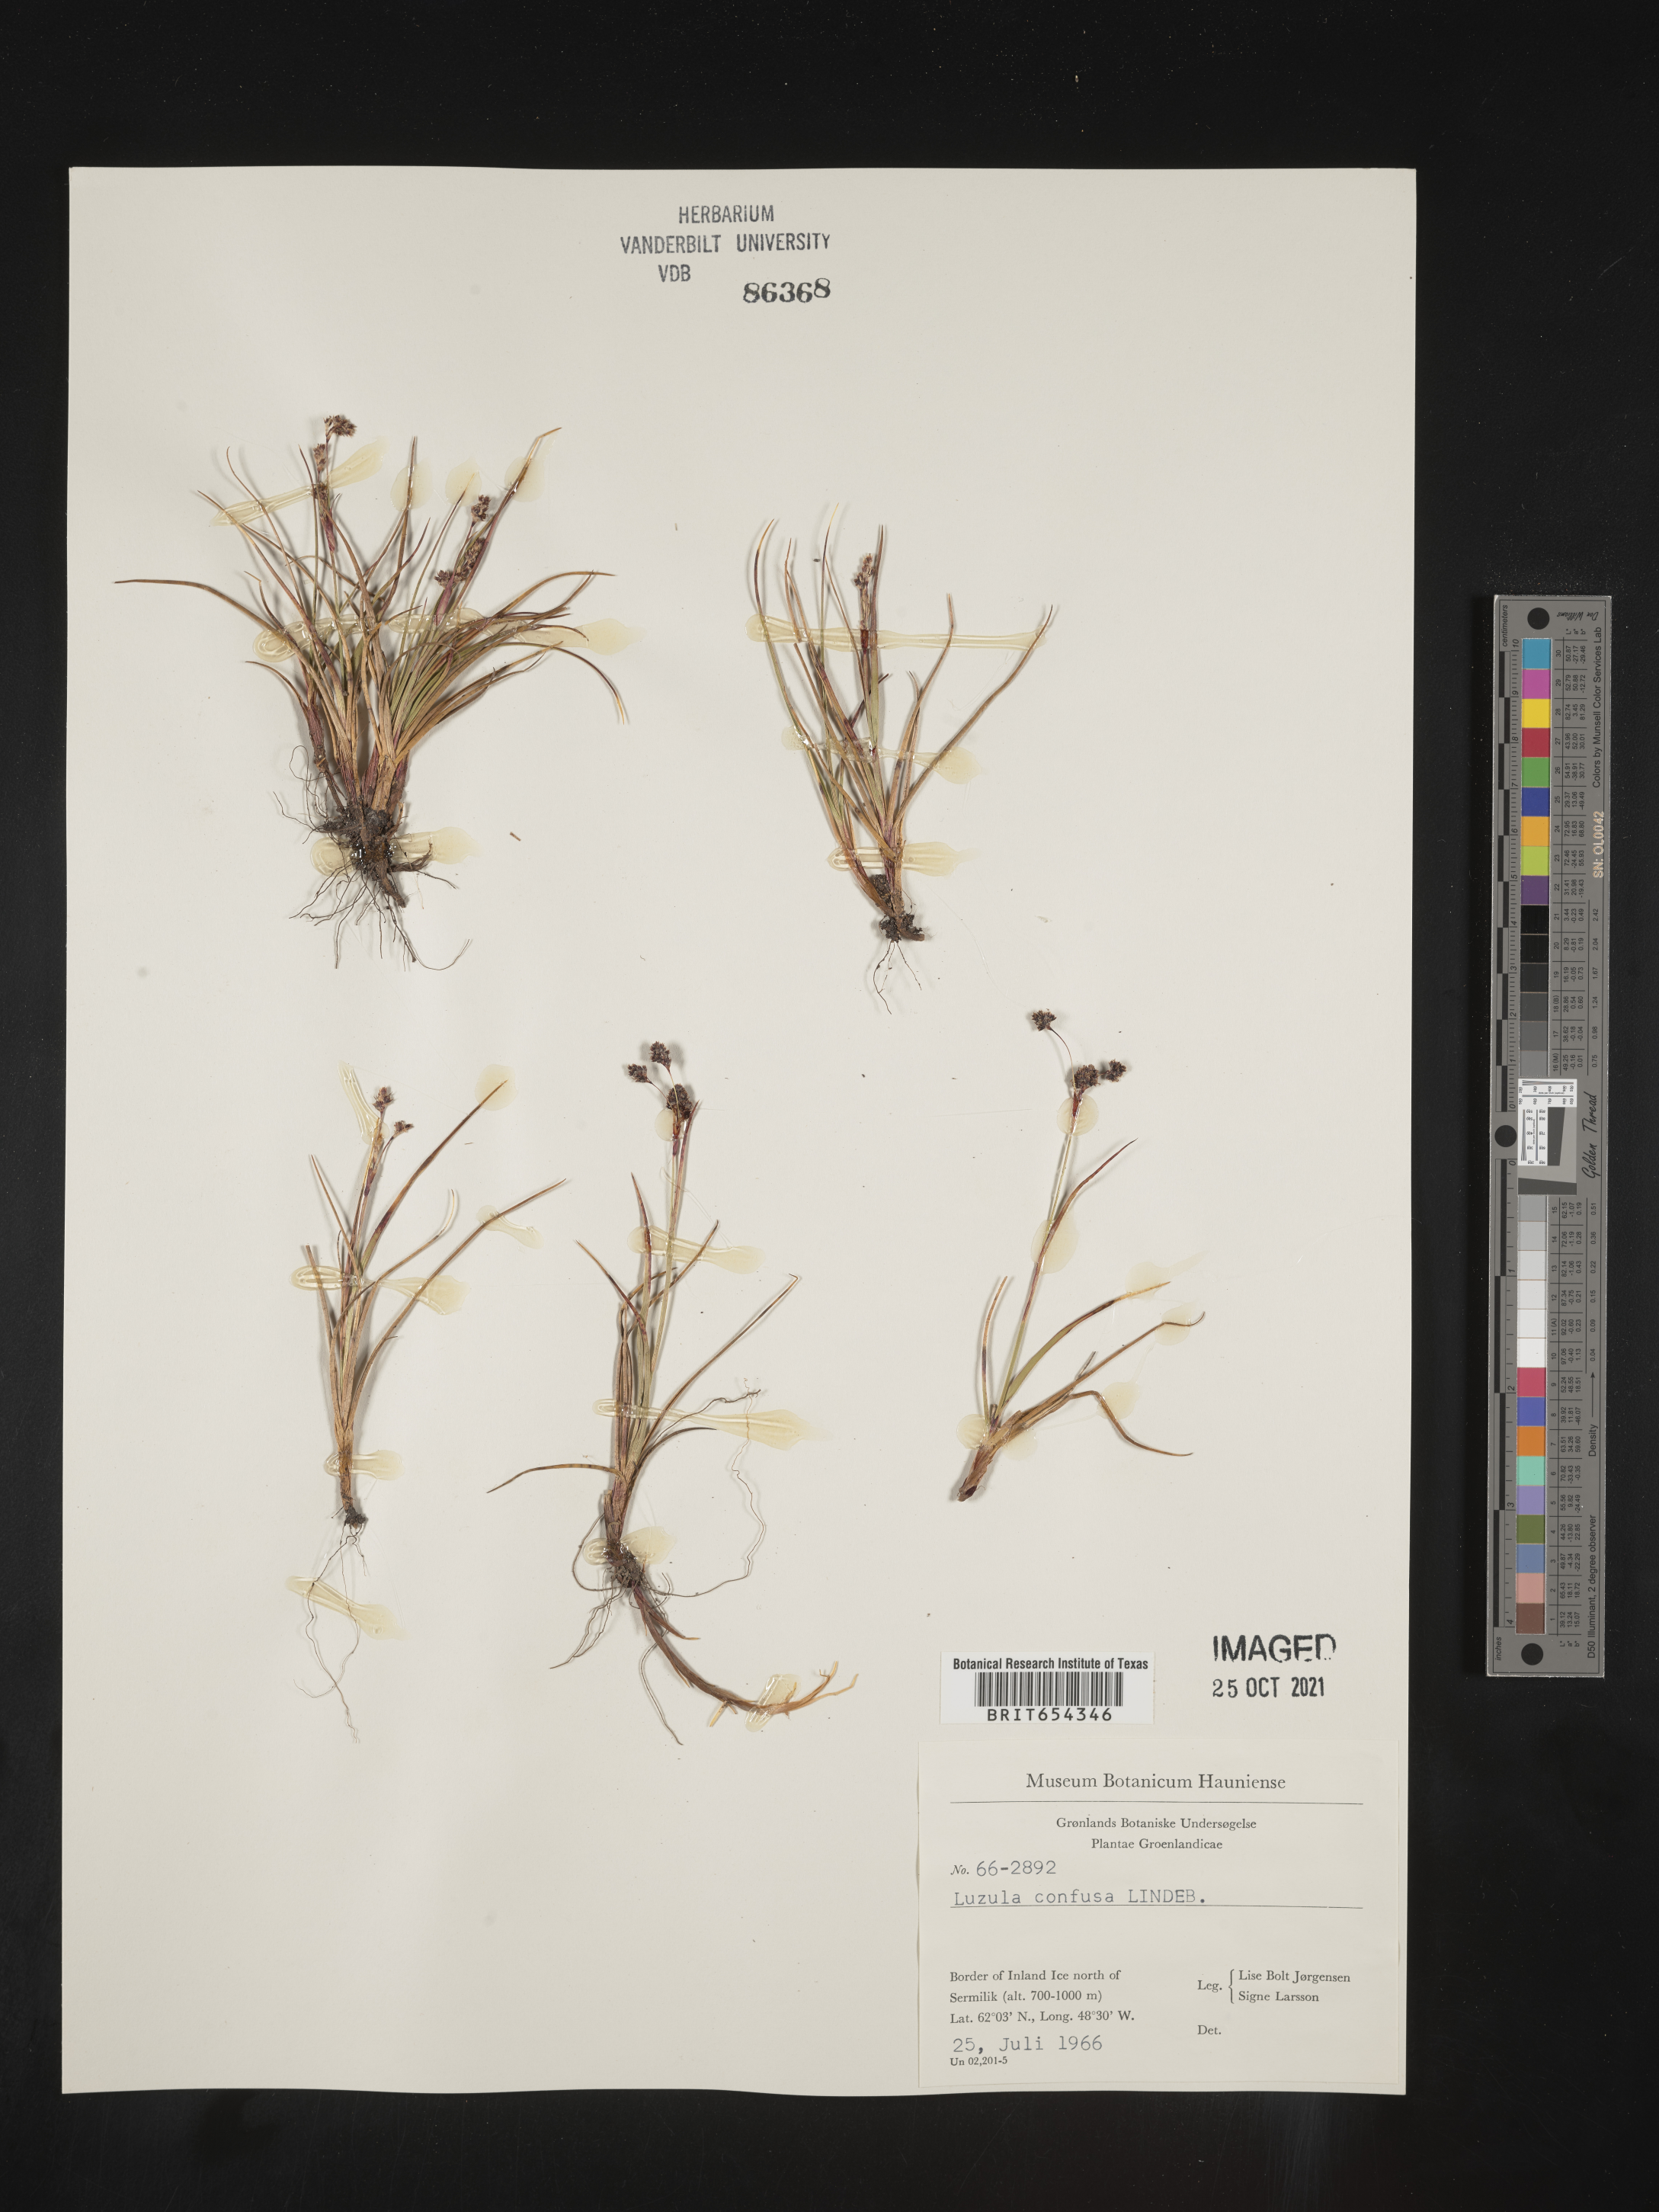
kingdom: Plantae
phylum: Tracheophyta
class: Liliopsida
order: Poales
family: Juncaceae
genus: Luzula
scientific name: Luzula
